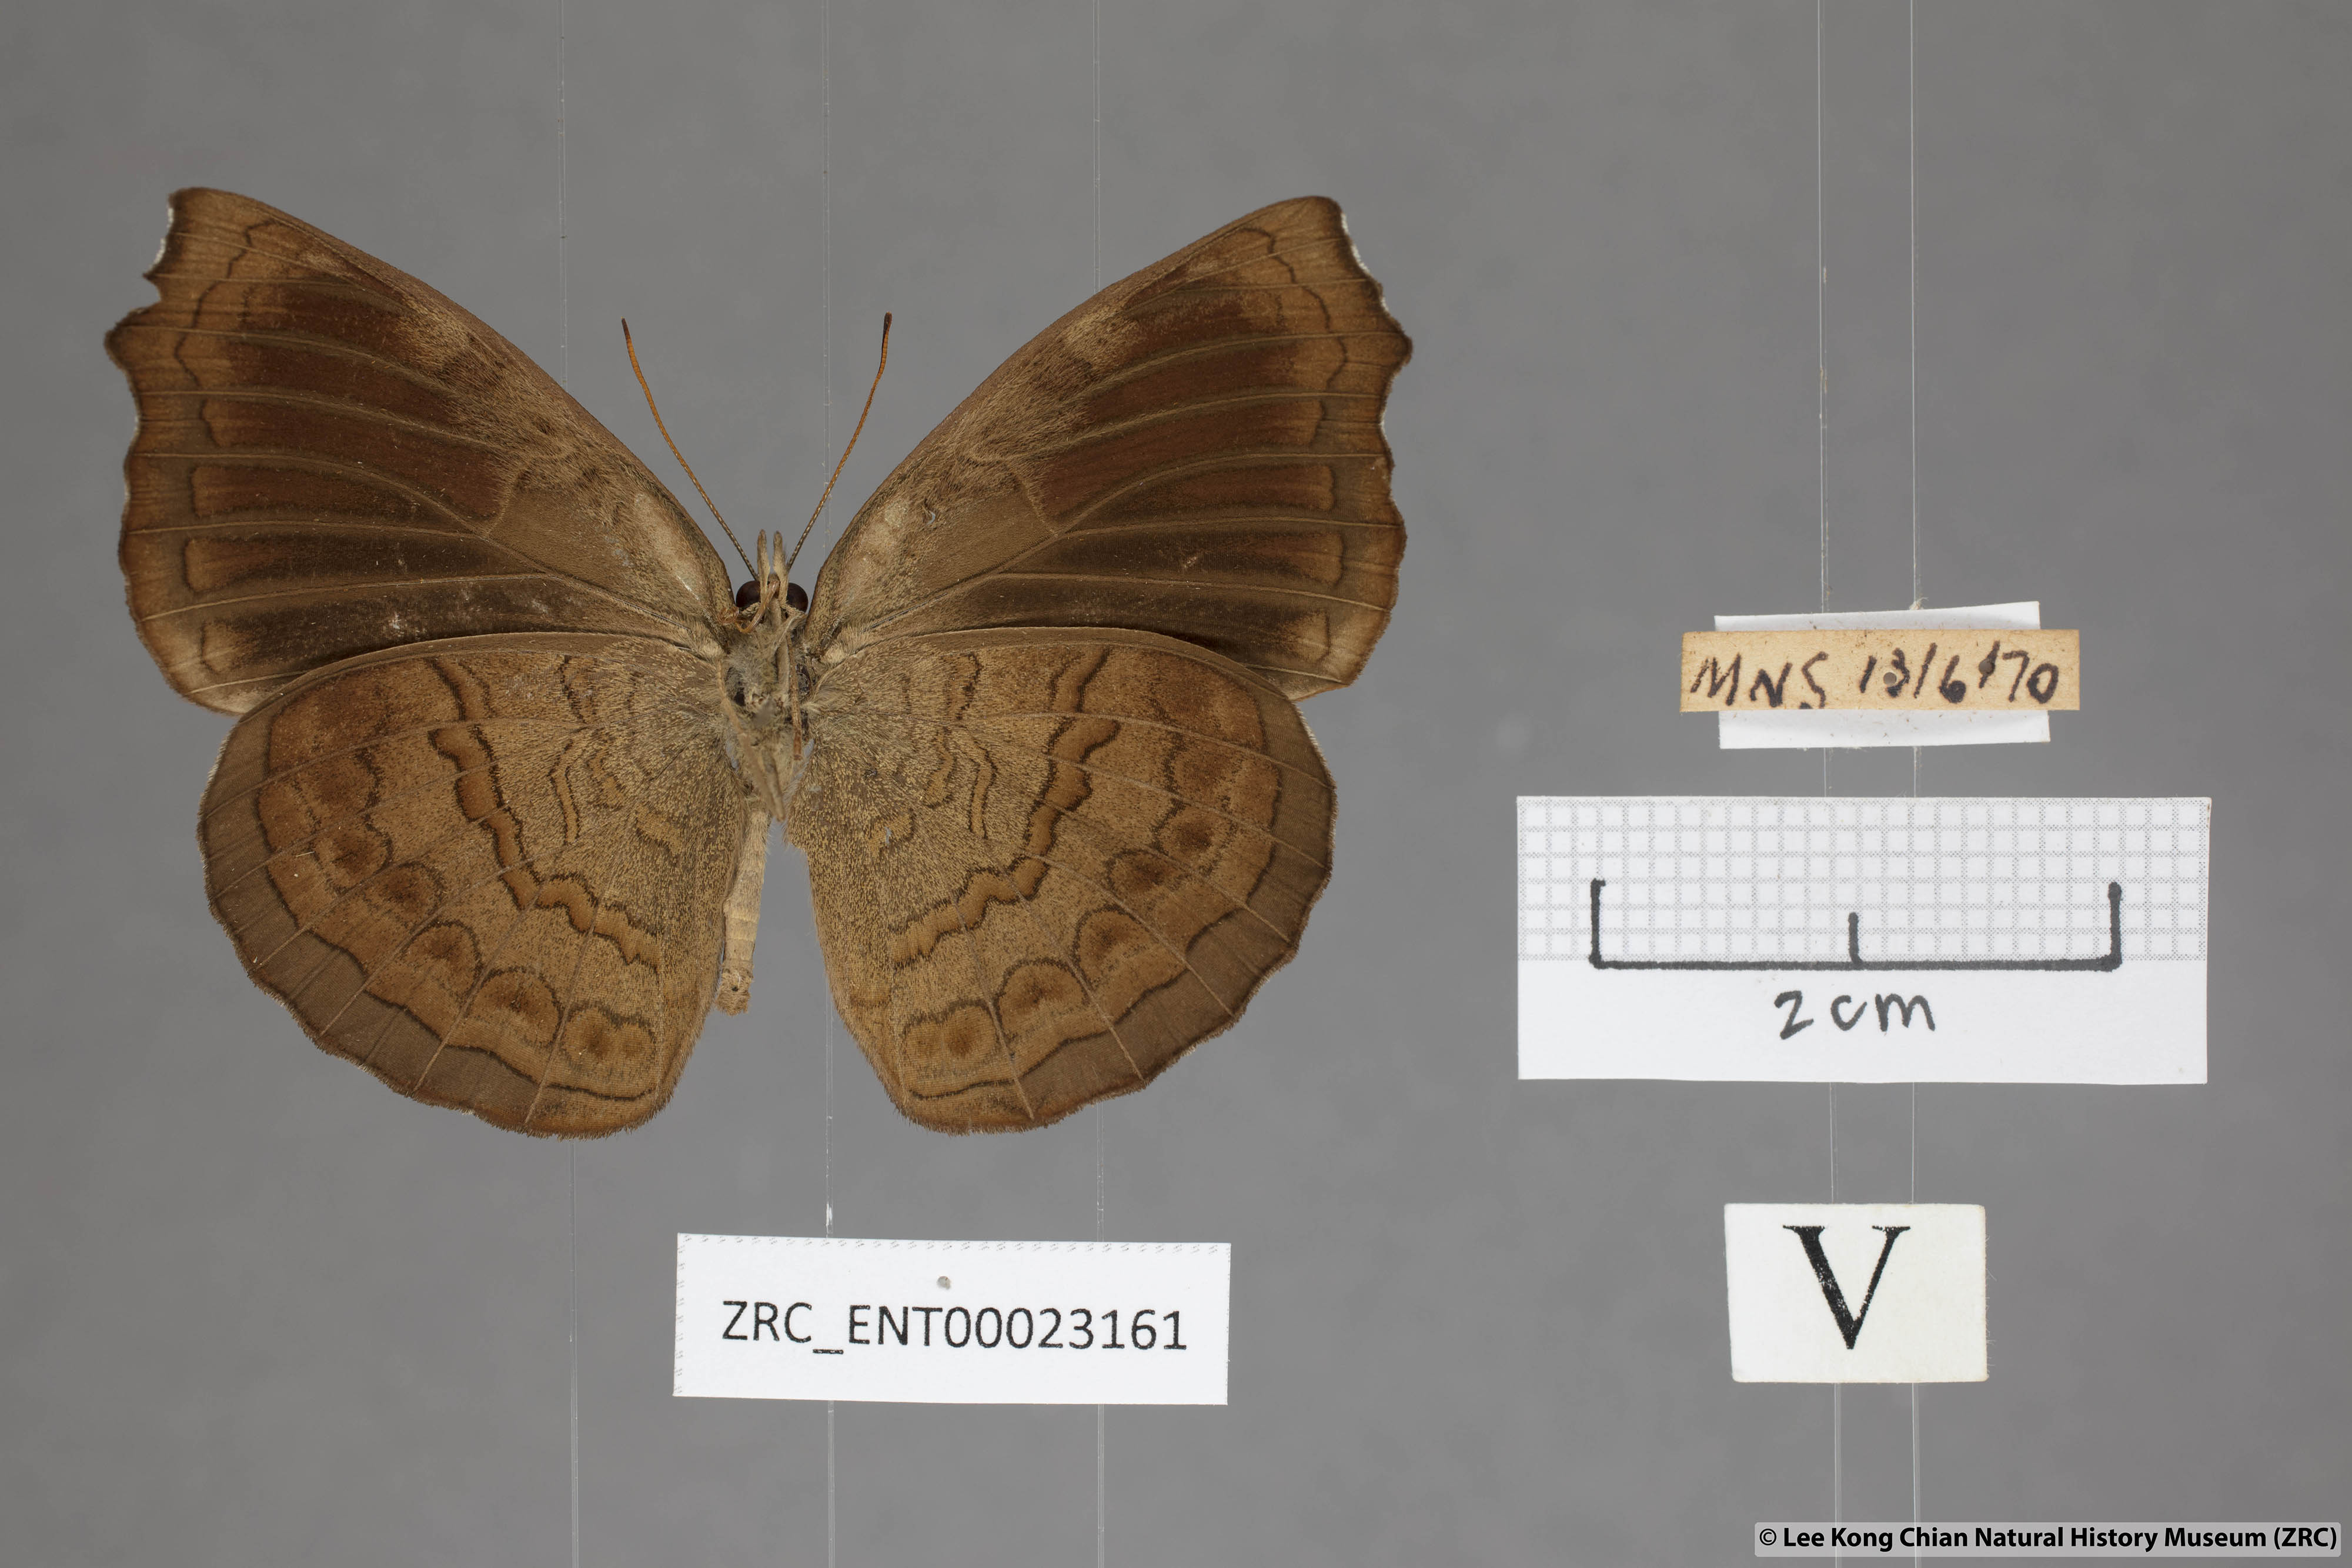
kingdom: Animalia
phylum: Arthropoda
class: Insecta
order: Lepidoptera
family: Nymphalidae
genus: Ariadne
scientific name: Ariadne isaeus
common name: Malayan castor
